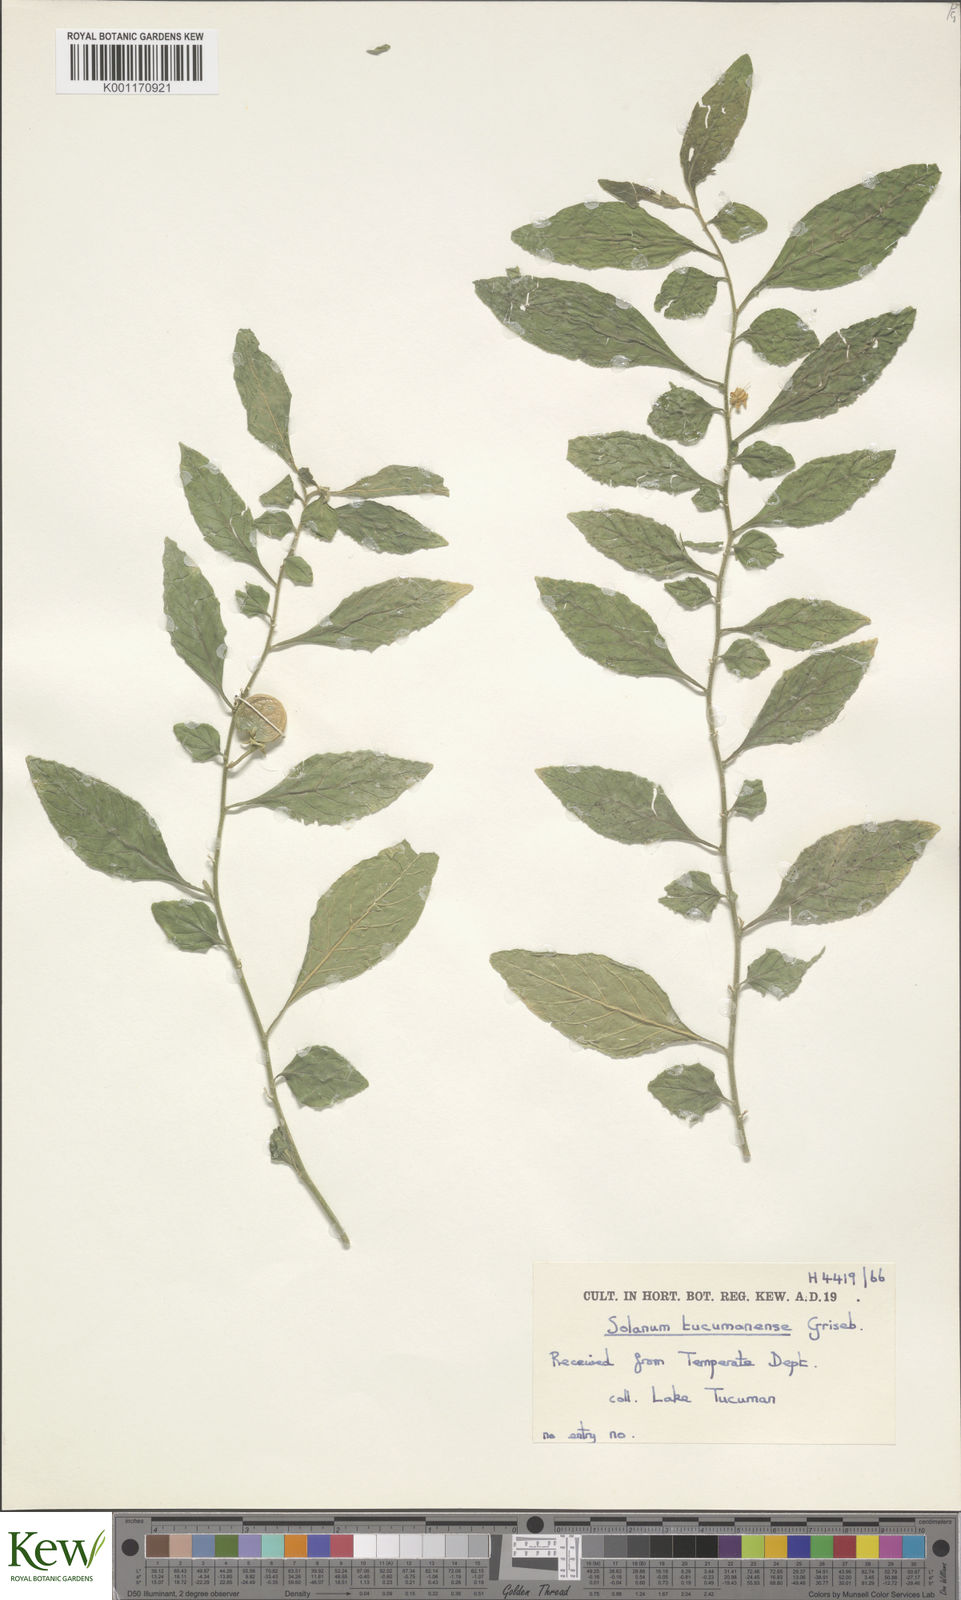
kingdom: Plantae
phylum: Tracheophyta
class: Magnoliopsida
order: Solanales
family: Solanaceae
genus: Solanum
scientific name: Solanum pseudocapsicum
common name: Jerusalem cherry
